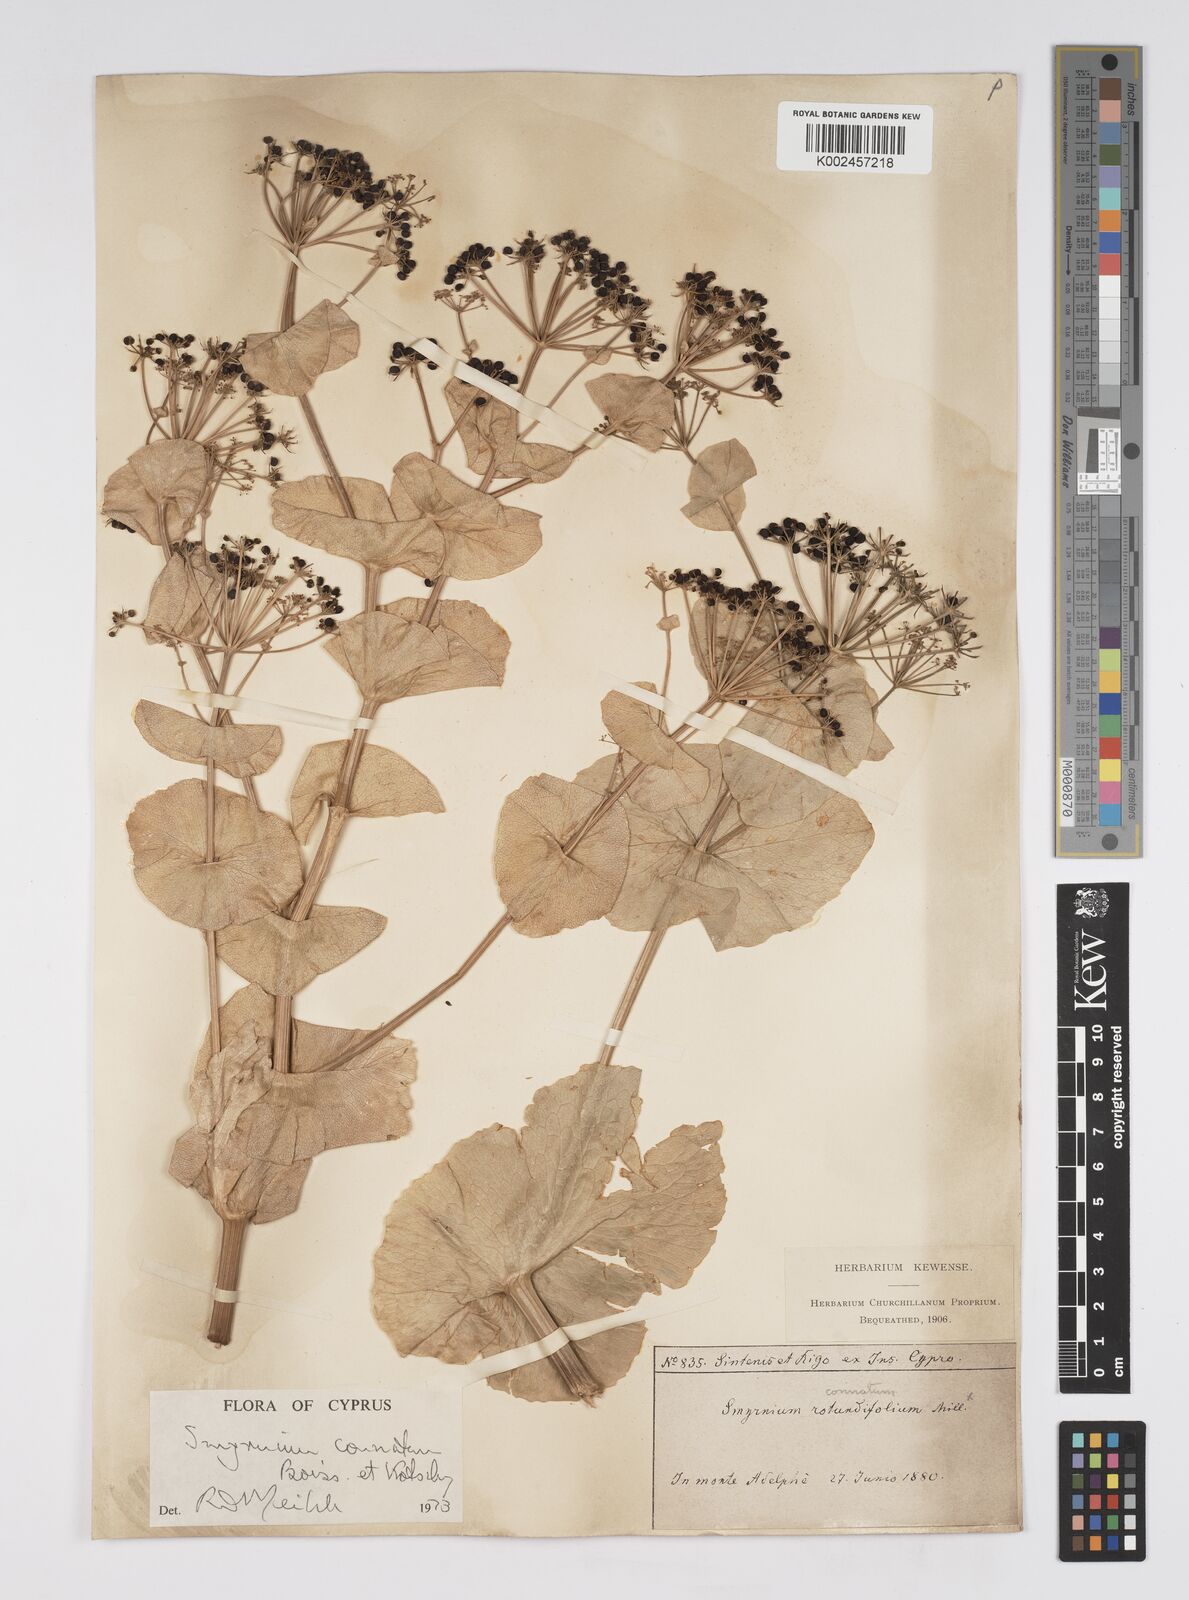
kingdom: Plantae
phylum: Tracheophyta
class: Magnoliopsida
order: Apiales
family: Apiaceae
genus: Smyrnium
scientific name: Smyrnium connatum
